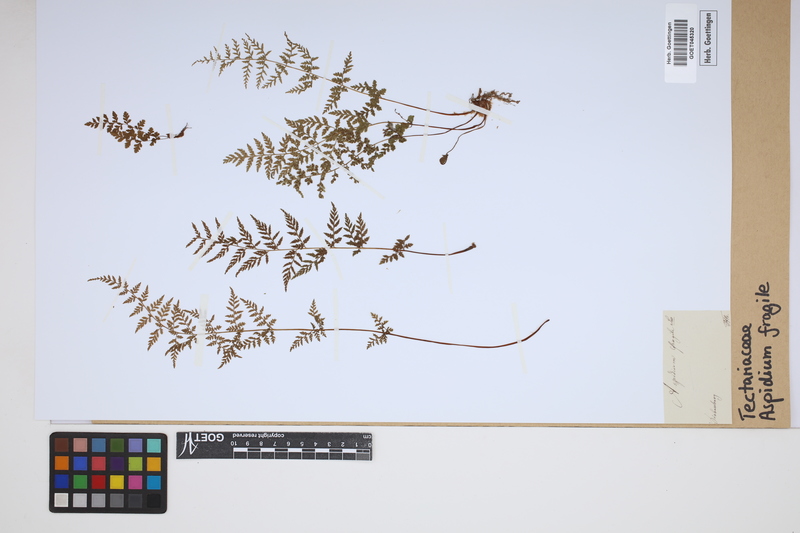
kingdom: Plantae
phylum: Tracheophyta
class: Polypodiopsida
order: Polypodiales
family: Cystopteridaceae
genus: Cystopteris
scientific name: Cystopteris fragilis
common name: Brittle bladder fern
